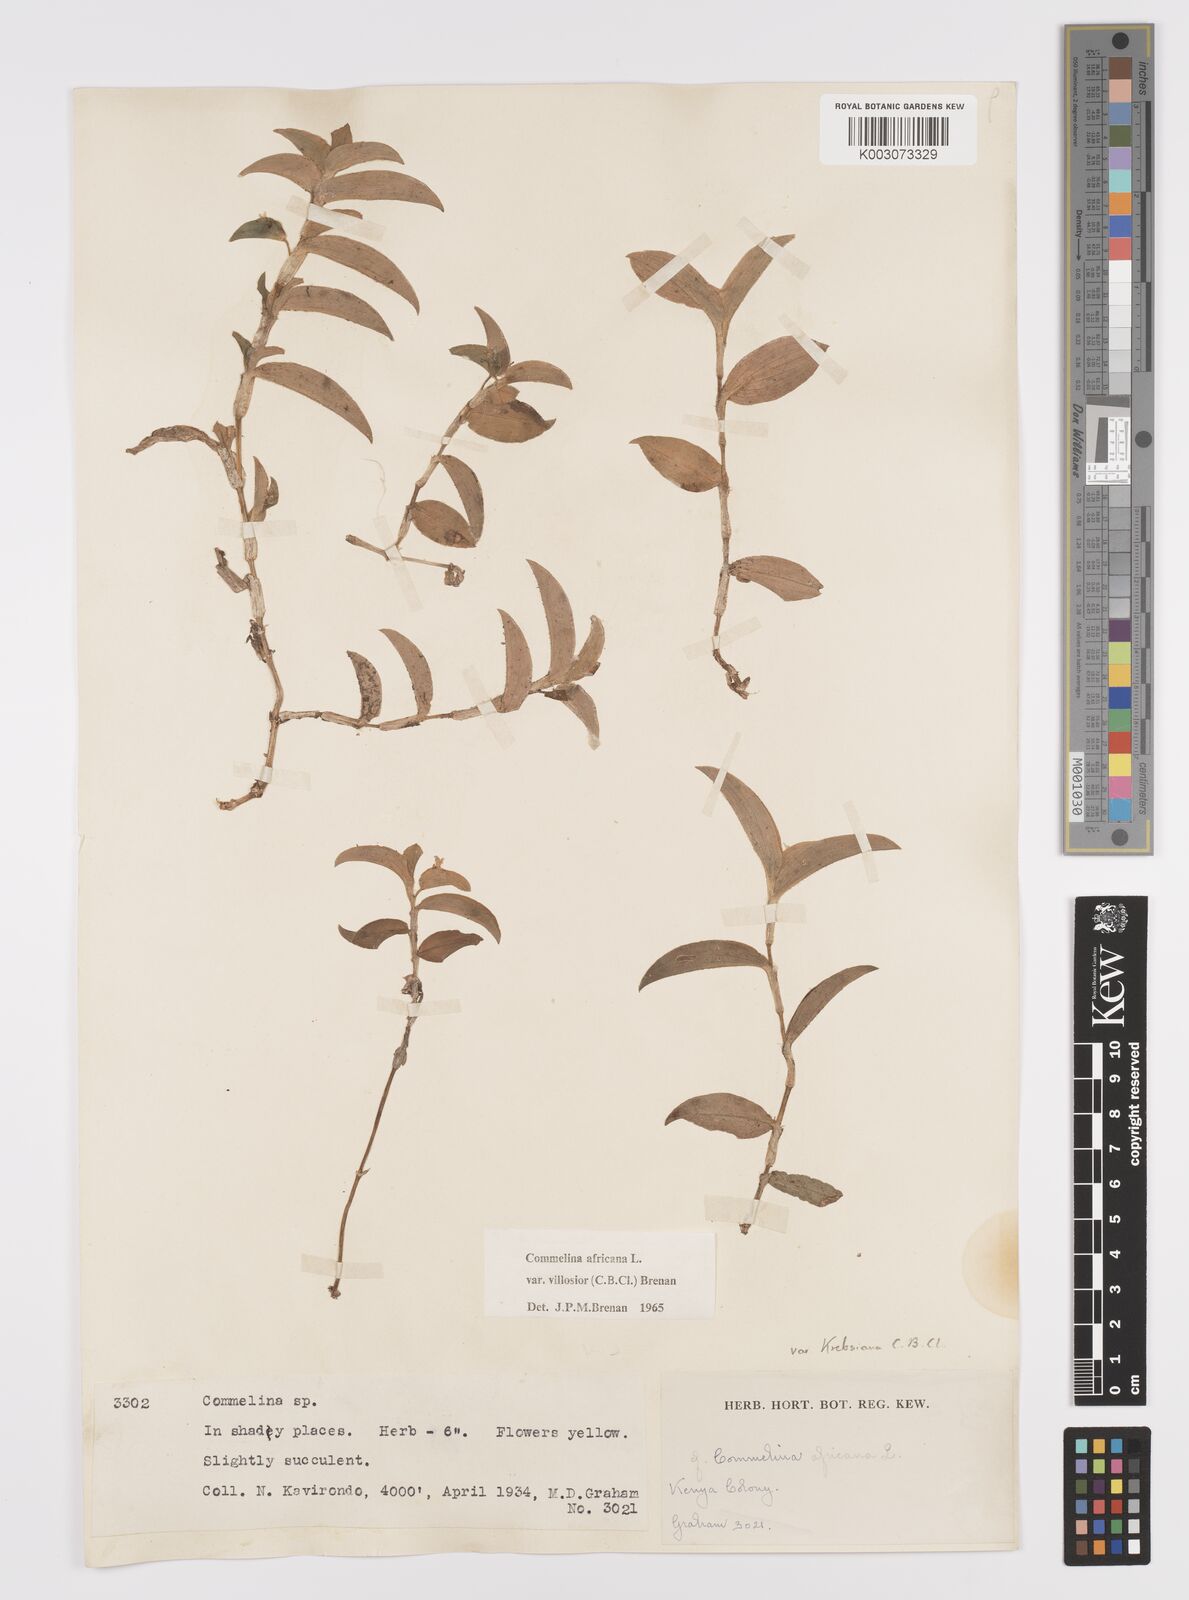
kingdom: Plantae
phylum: Tracheophyta
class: Liliopsida
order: Commelinales
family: Commelinaceae
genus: Commelina
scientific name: Commelina africana
